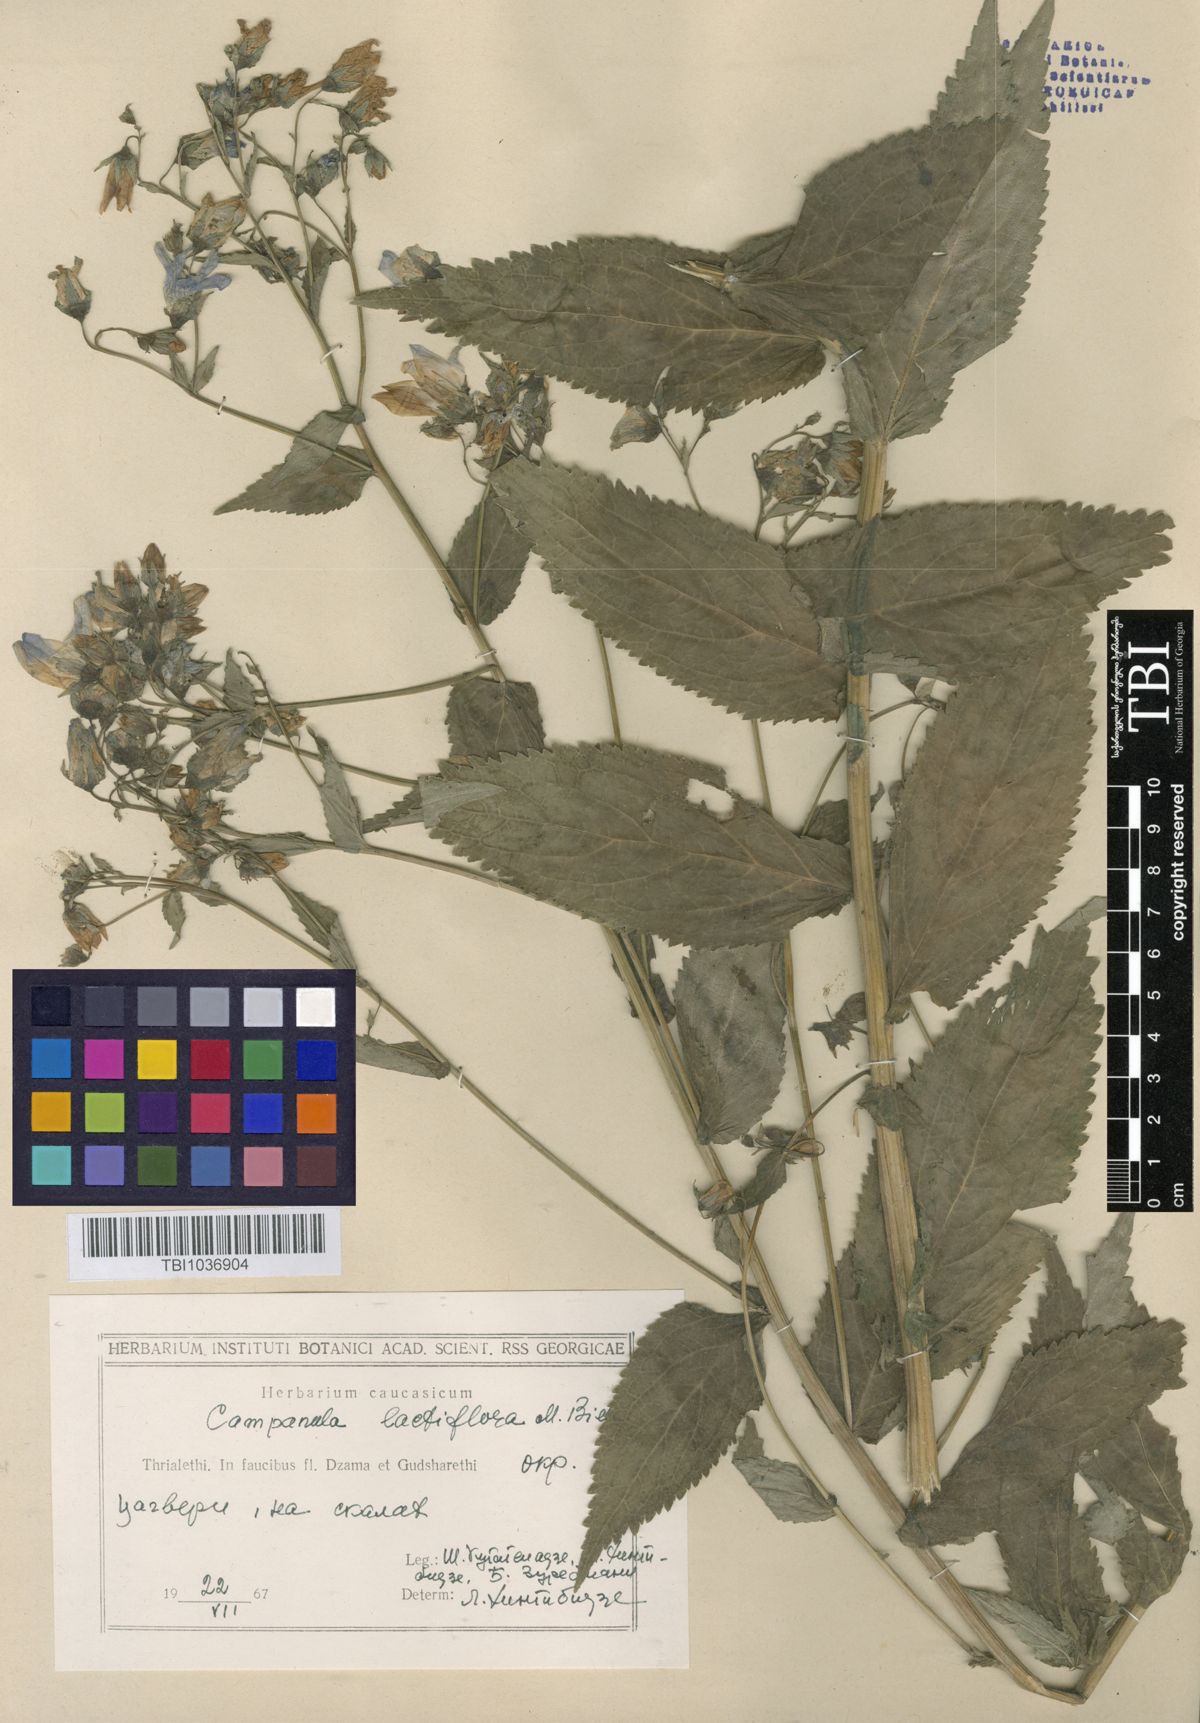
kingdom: Plantae
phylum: Tracheophyta
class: Magnoliopsida
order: Asterales
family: Campanulaceae
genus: Campanula
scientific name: Campanula lactiflora
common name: Milky bellflower
